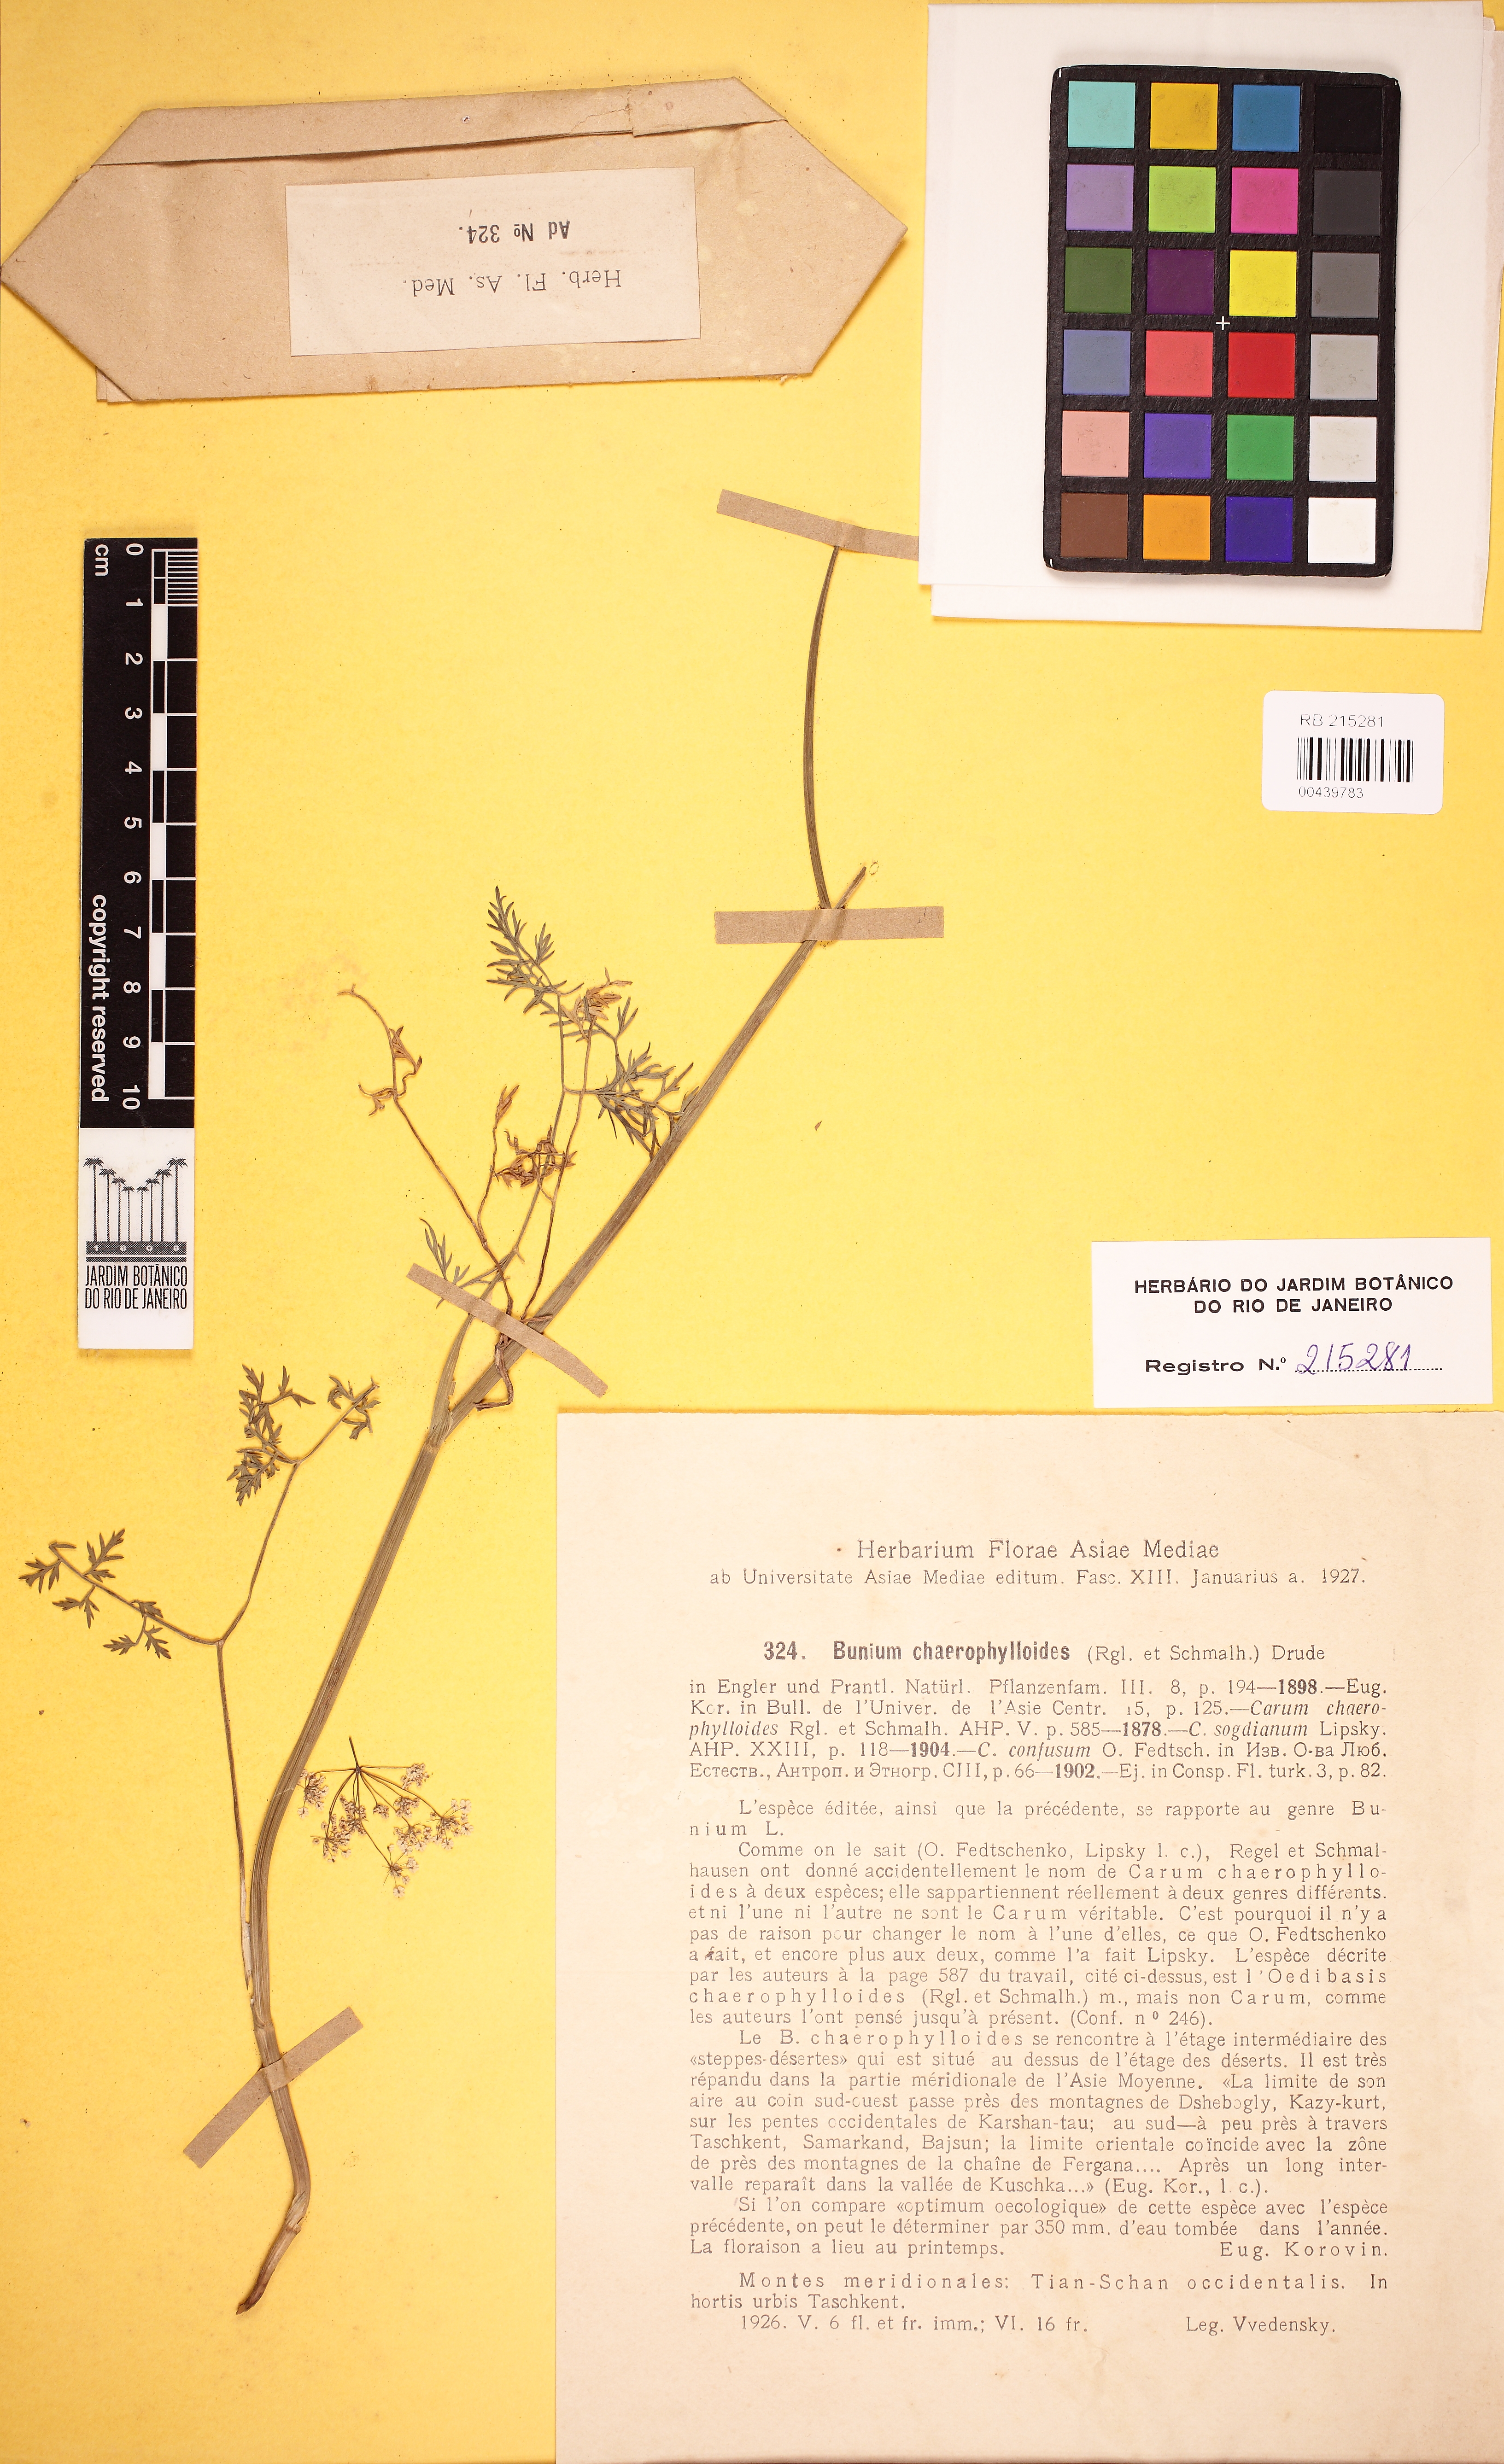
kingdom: Plantae
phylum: Tracheophyta
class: Magnoliopsida
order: Apiales
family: Apiaceae
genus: Elwendia
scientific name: Elwendia chaerophylloides
